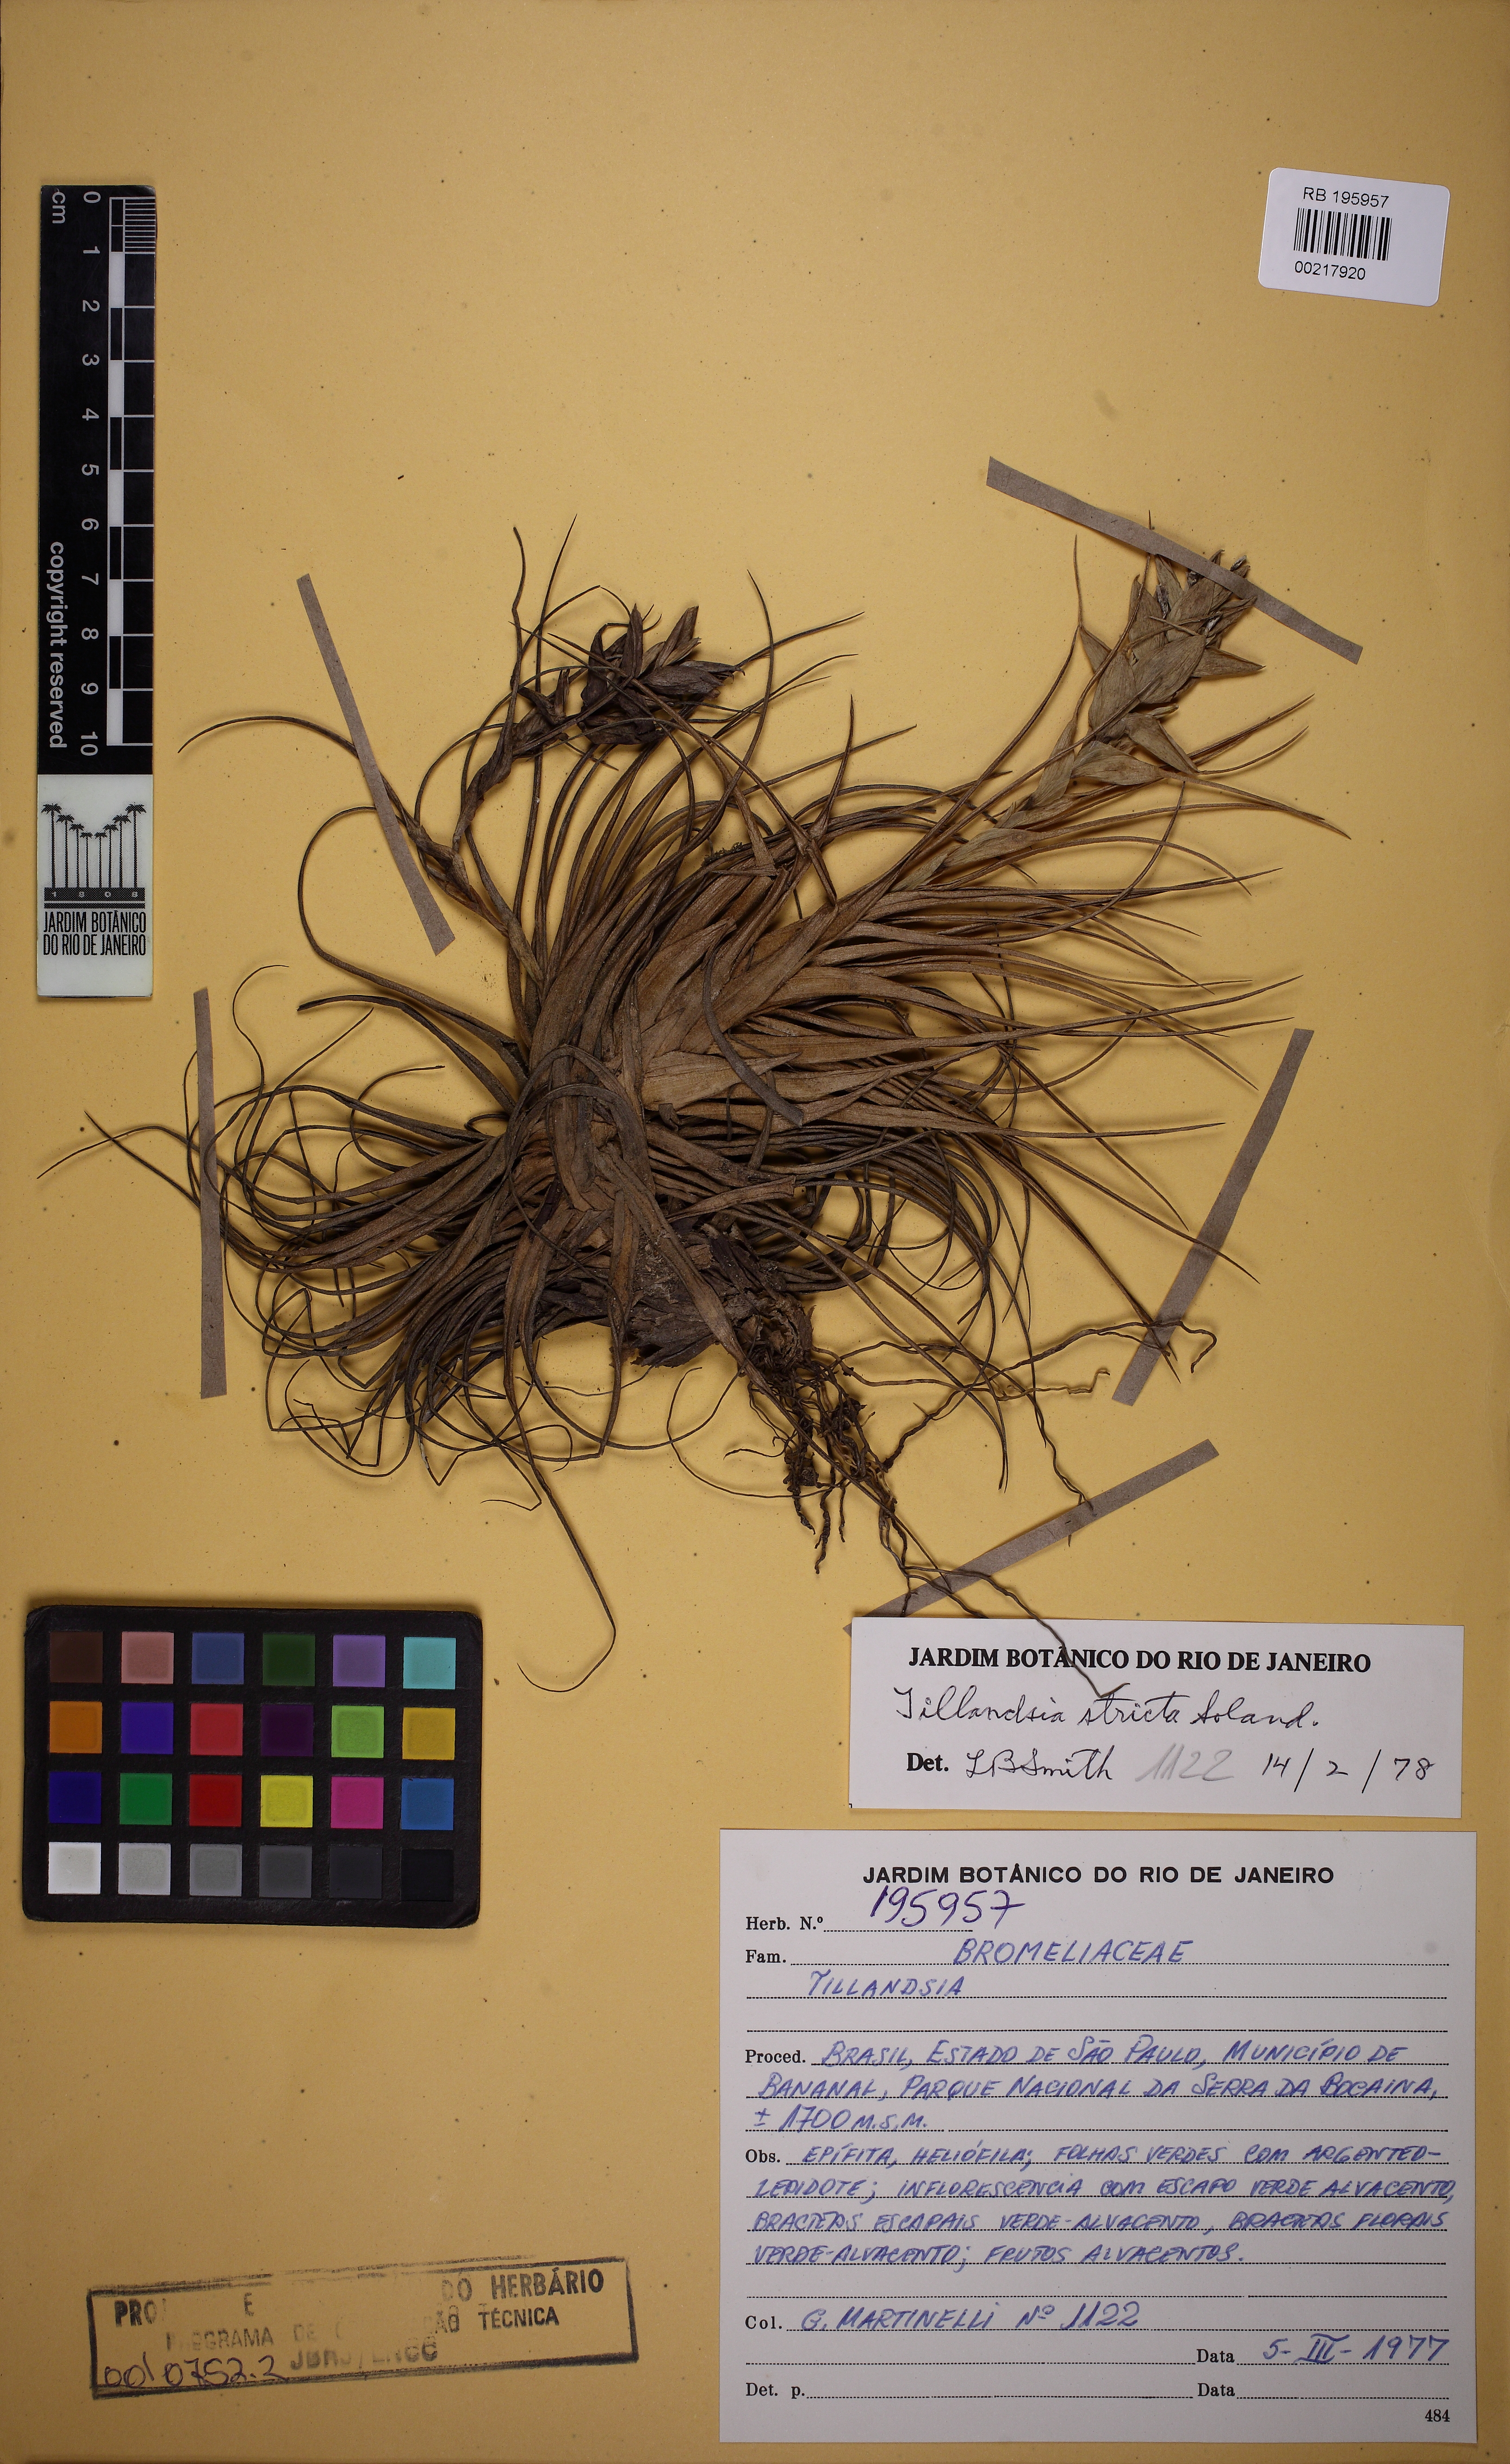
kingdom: Plantae
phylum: Tracheophyta
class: Liliopsida
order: Poales
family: Bromeliaceae
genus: Tillandsia
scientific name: Tillandsia stricta
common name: Airplant
